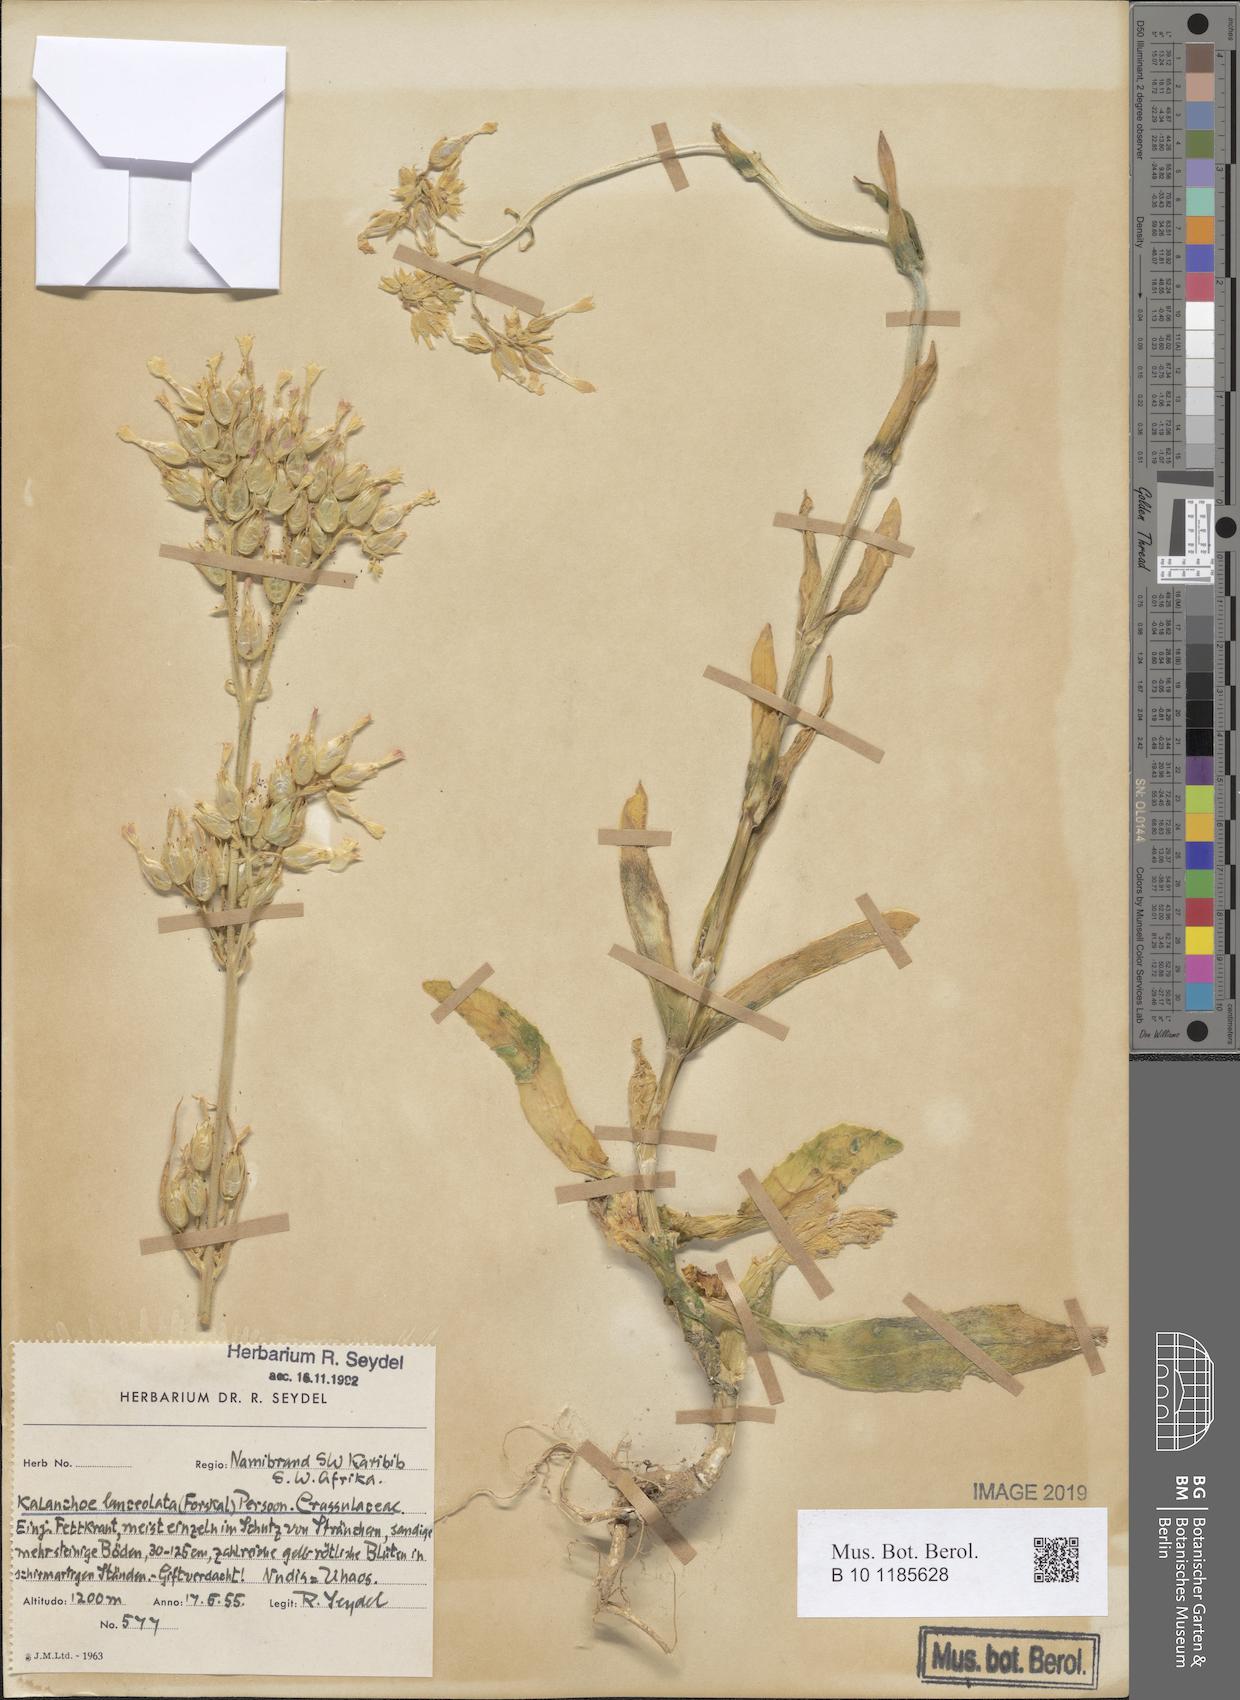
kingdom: Plantae
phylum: Tracheophyta
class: Magnoliopsida
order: Saxifragales
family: Crassulaceae
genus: Kalanchoe
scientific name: Kalanchoe lanceolata
